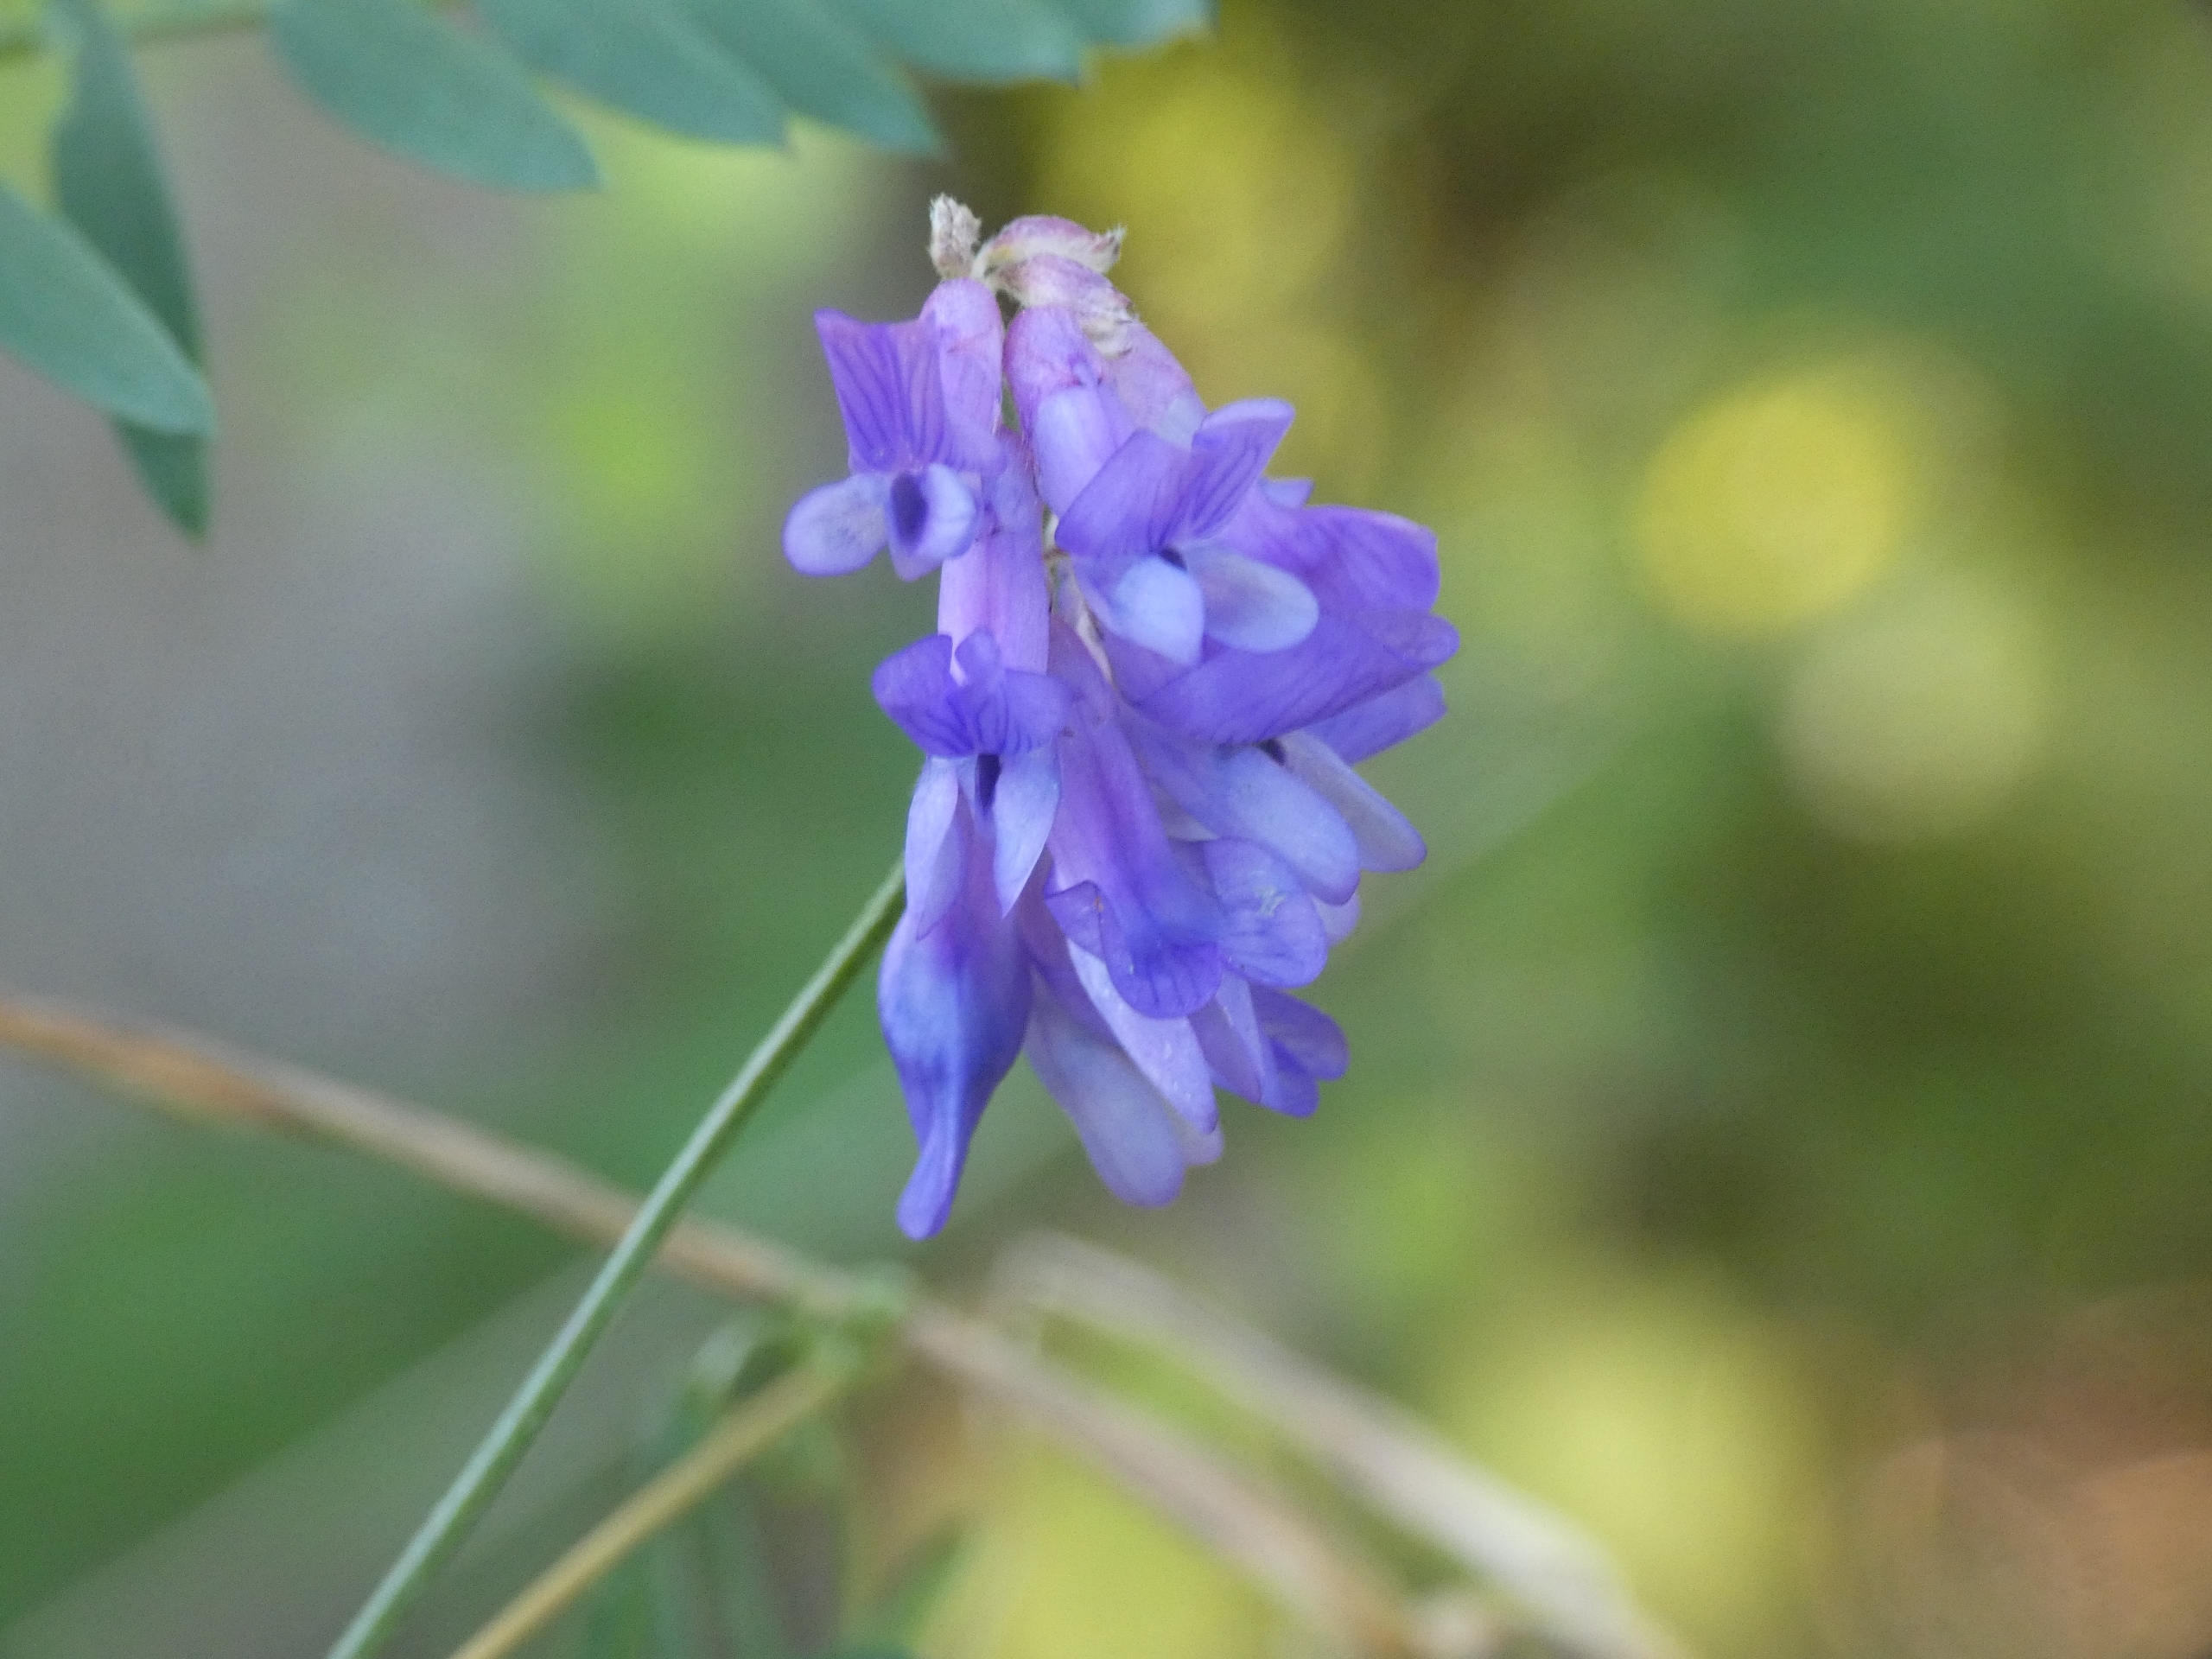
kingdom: Plantae
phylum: Tracheophyta
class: Magnoliopsida
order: Fabales
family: Fabaceae
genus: Vicia
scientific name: Vicia cracca
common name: Muse-vikke
